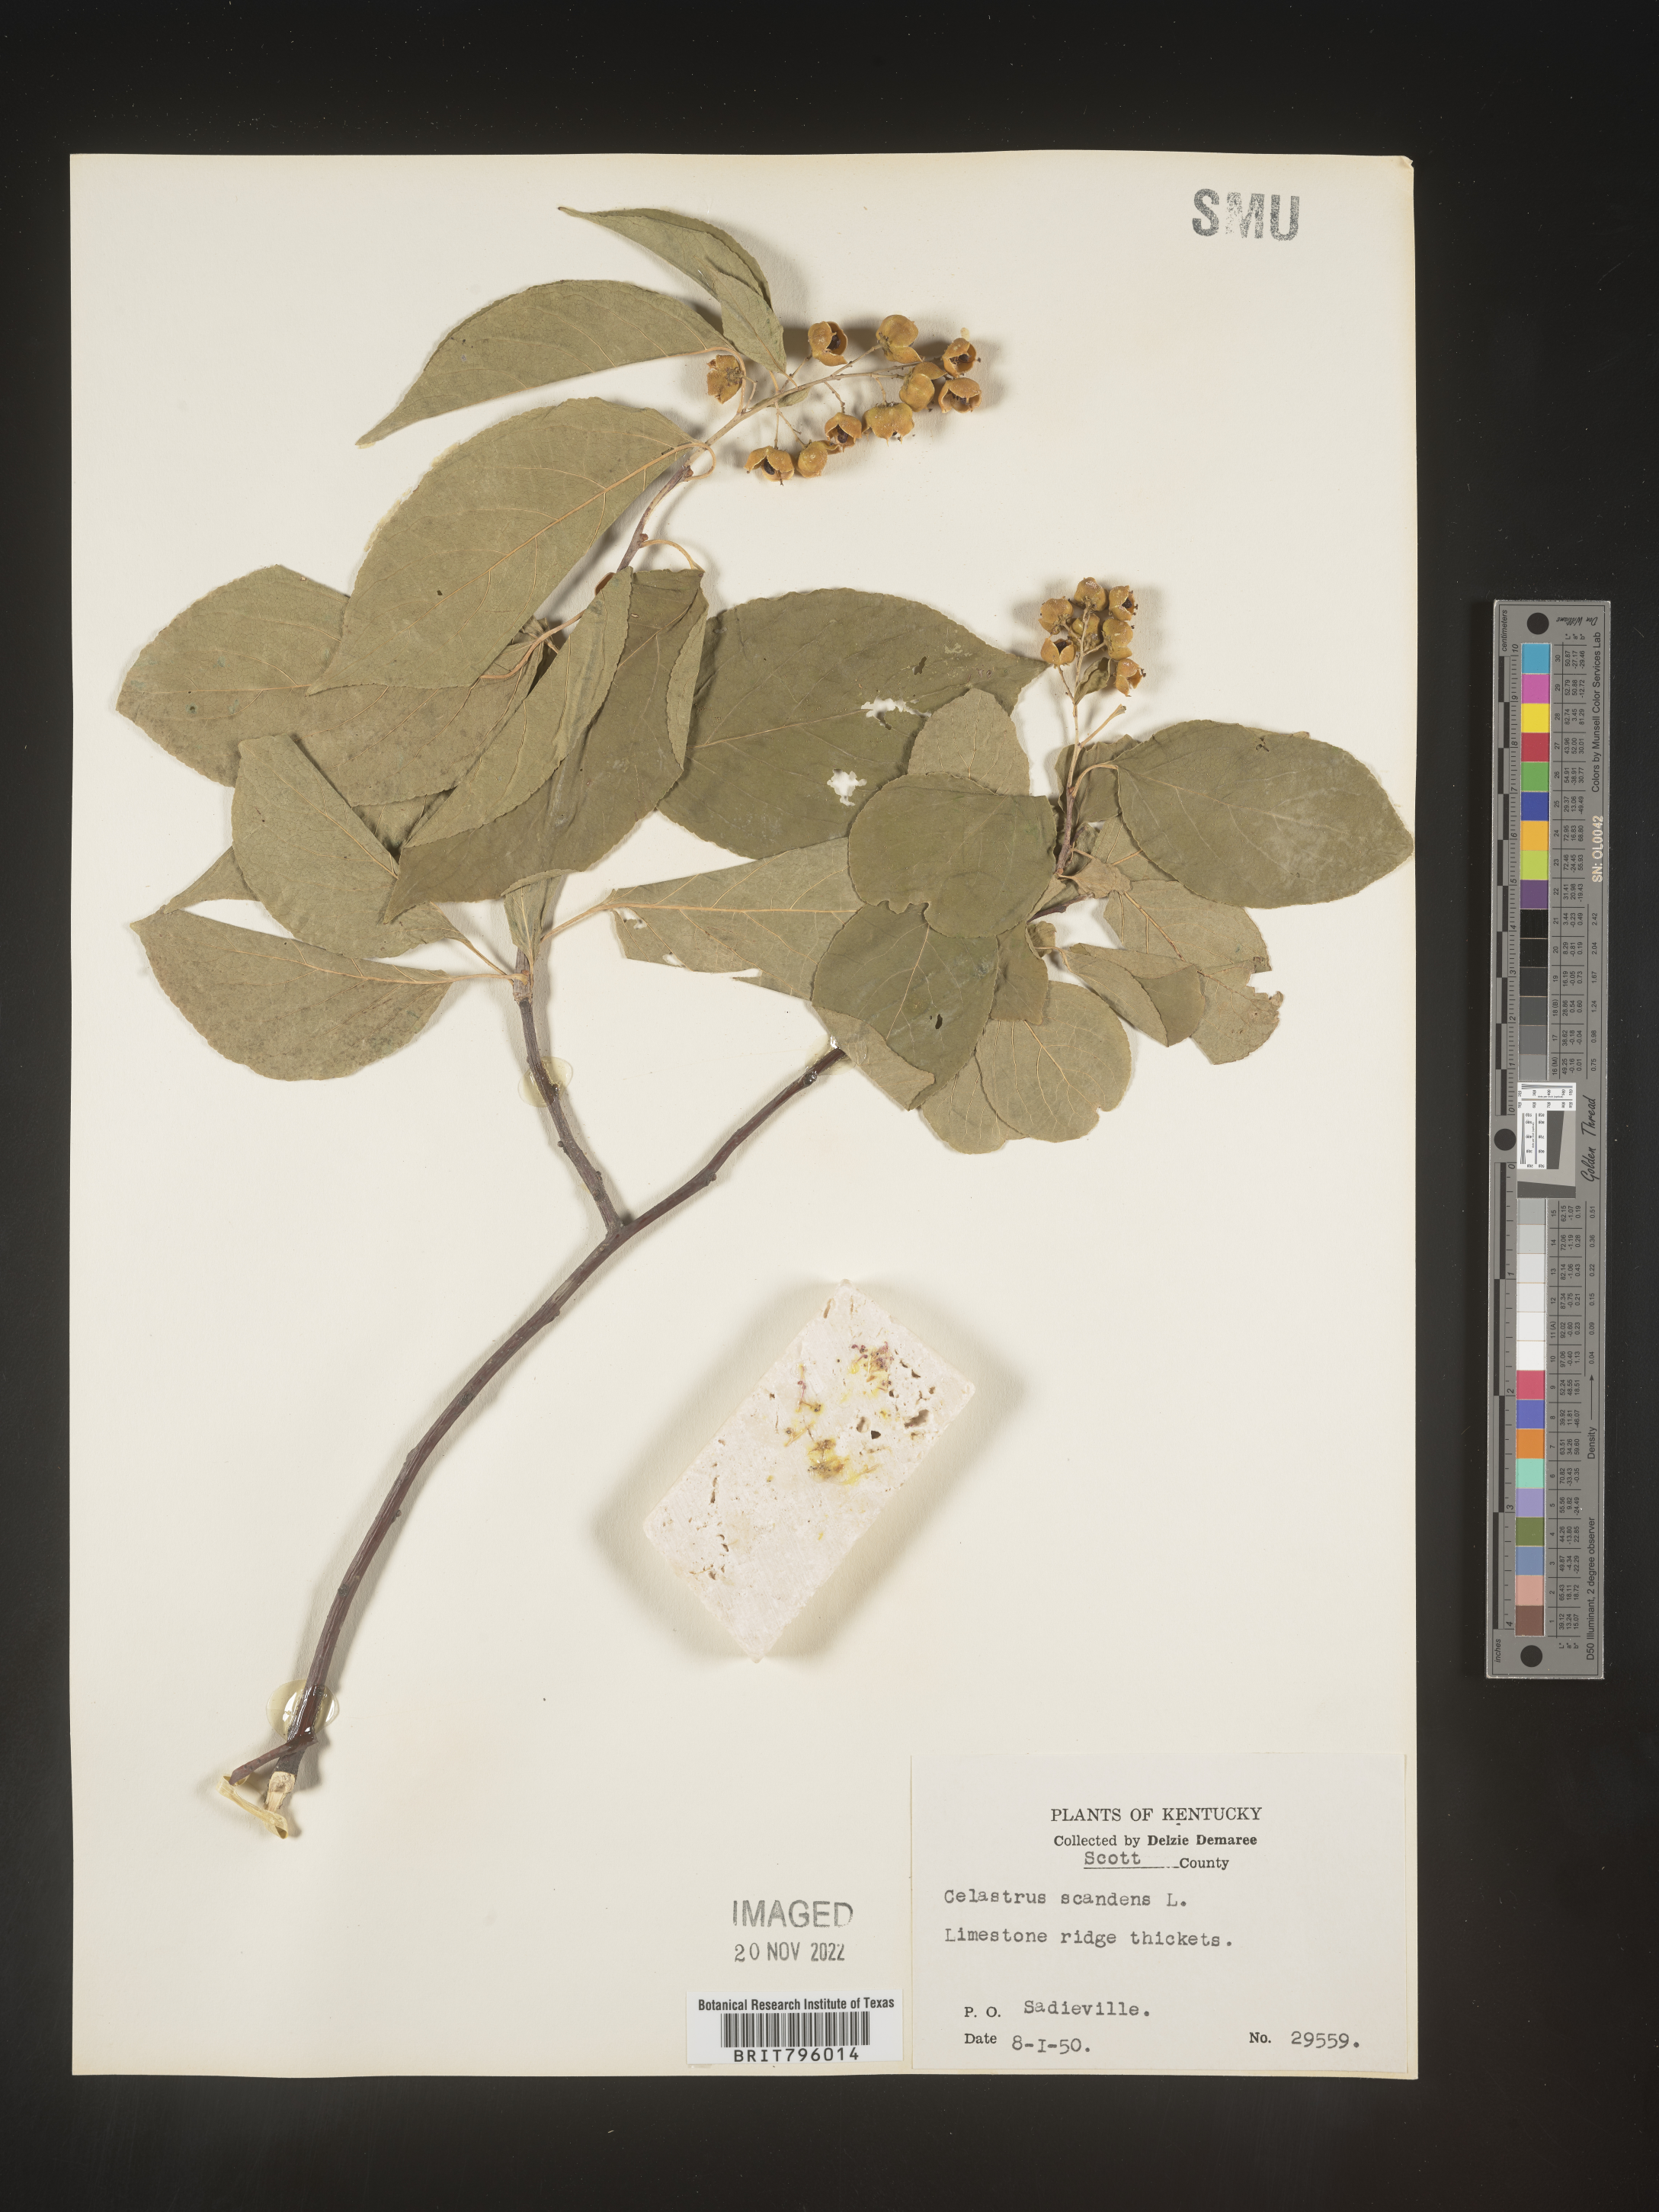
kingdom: Plantae
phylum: Tracheophyta
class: Magnoliopsida
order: Celastrales
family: Celastraceae
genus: Celastrus
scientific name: Celastrus scandens
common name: American bittersweet
